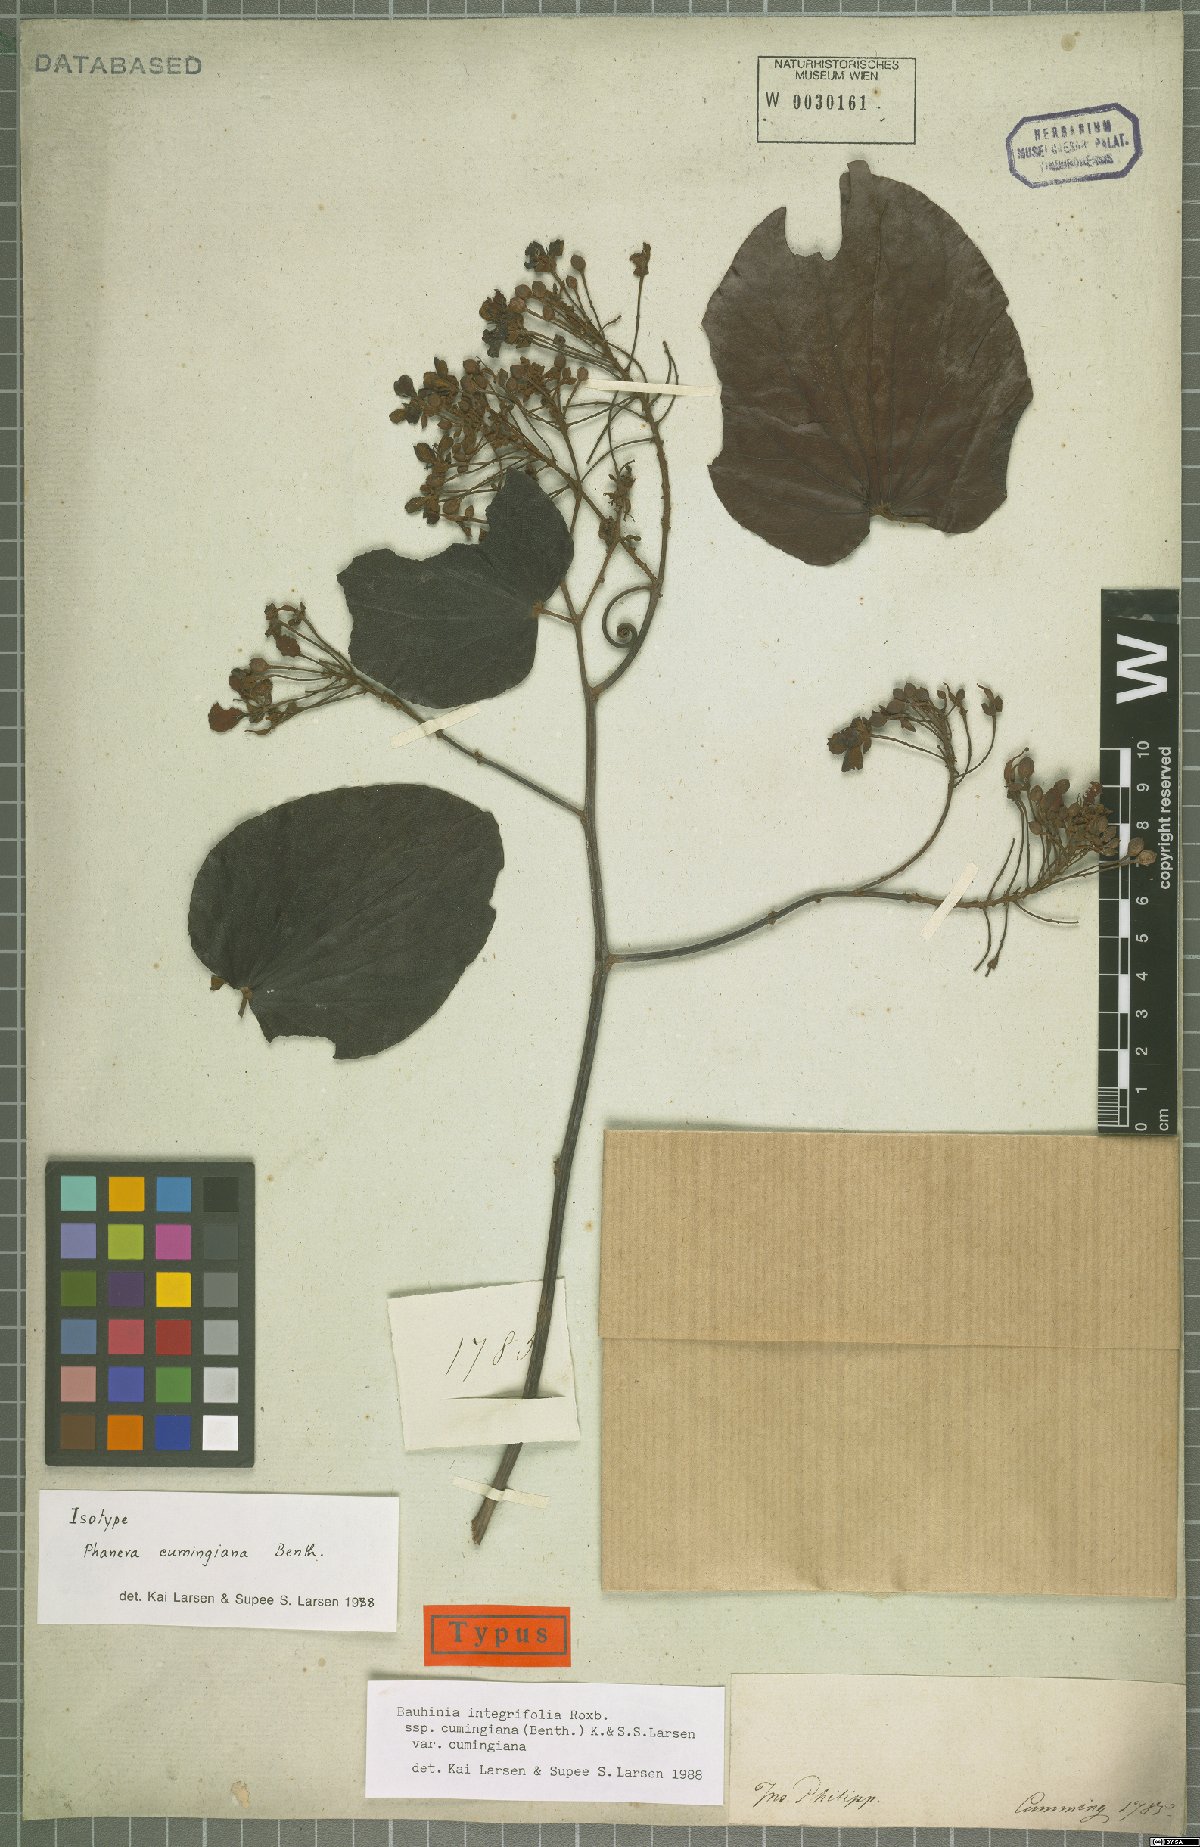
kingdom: Plantae
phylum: Tracheophyta
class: Magnoliopsida
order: Fabales
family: Fabaceae
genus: Phanera
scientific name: Phanera integrifolia
